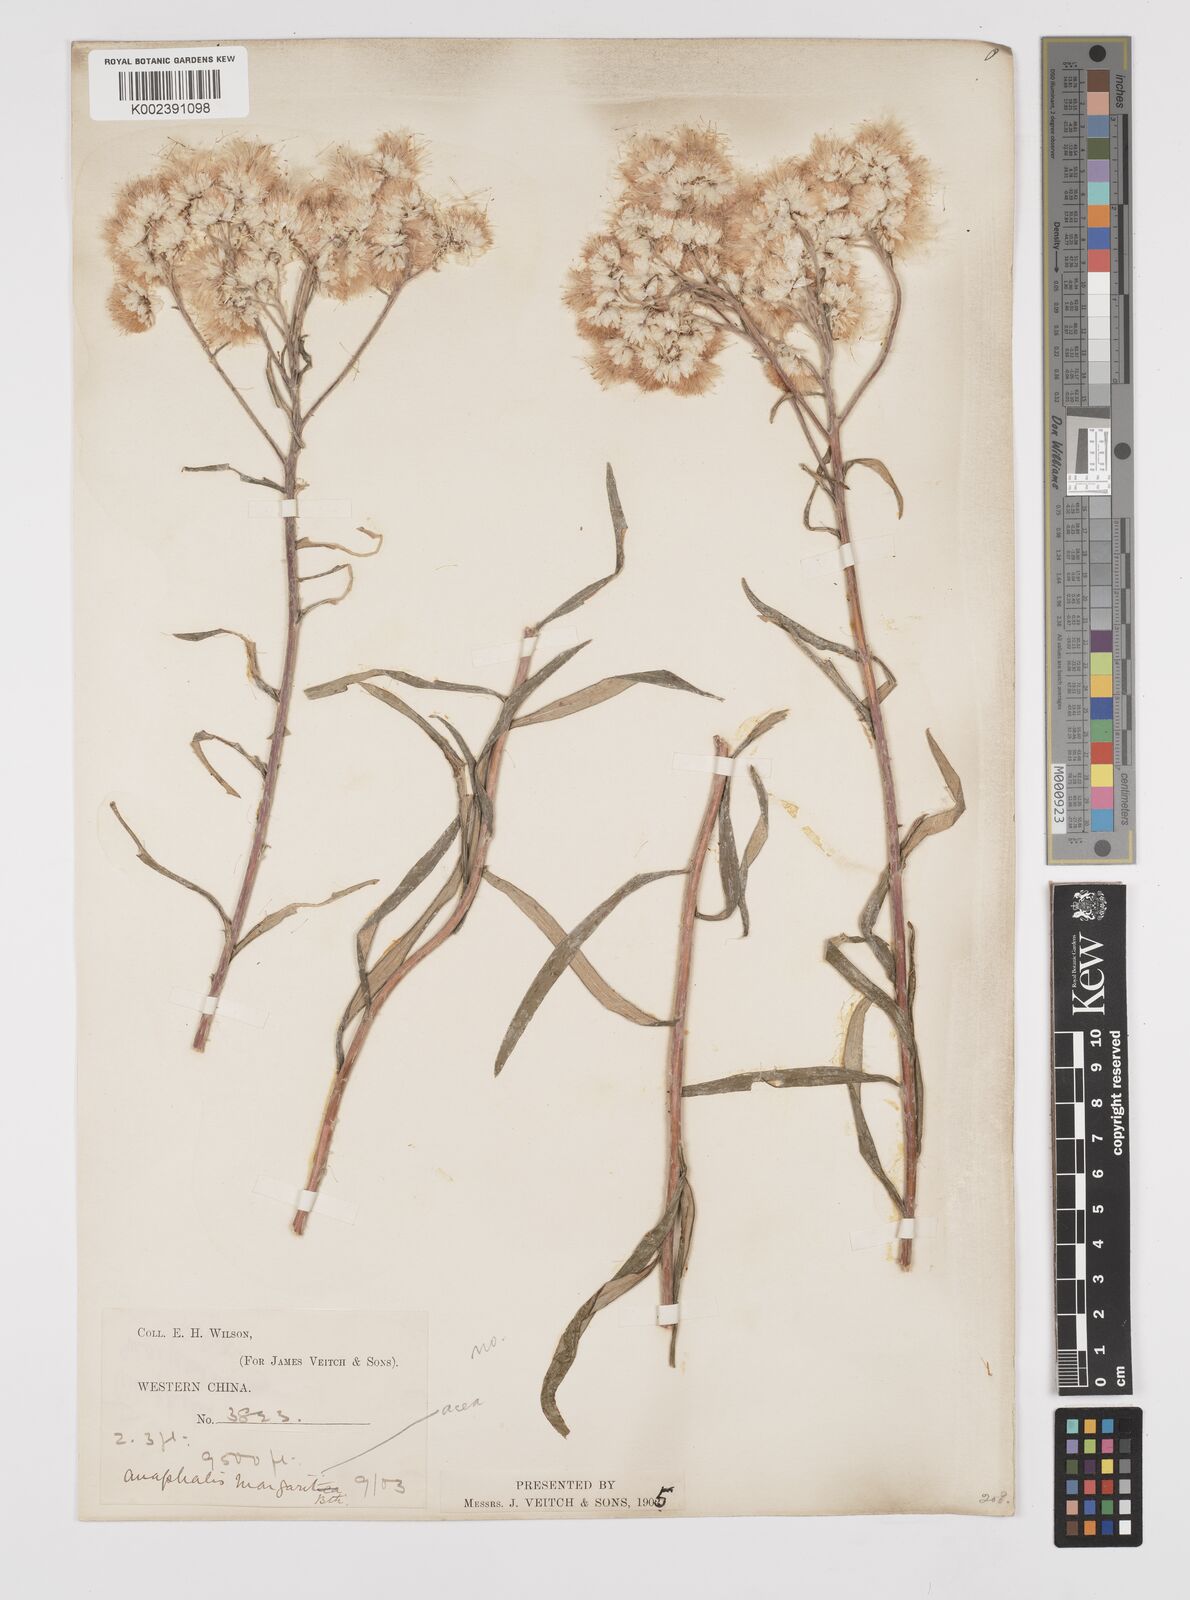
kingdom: Plantae
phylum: Tracheophyta
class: Magnoliopsida
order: Asterales
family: Asteraceae
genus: Anaphalis
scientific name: Anaphalis margaritacea
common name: Pearly everlasting
